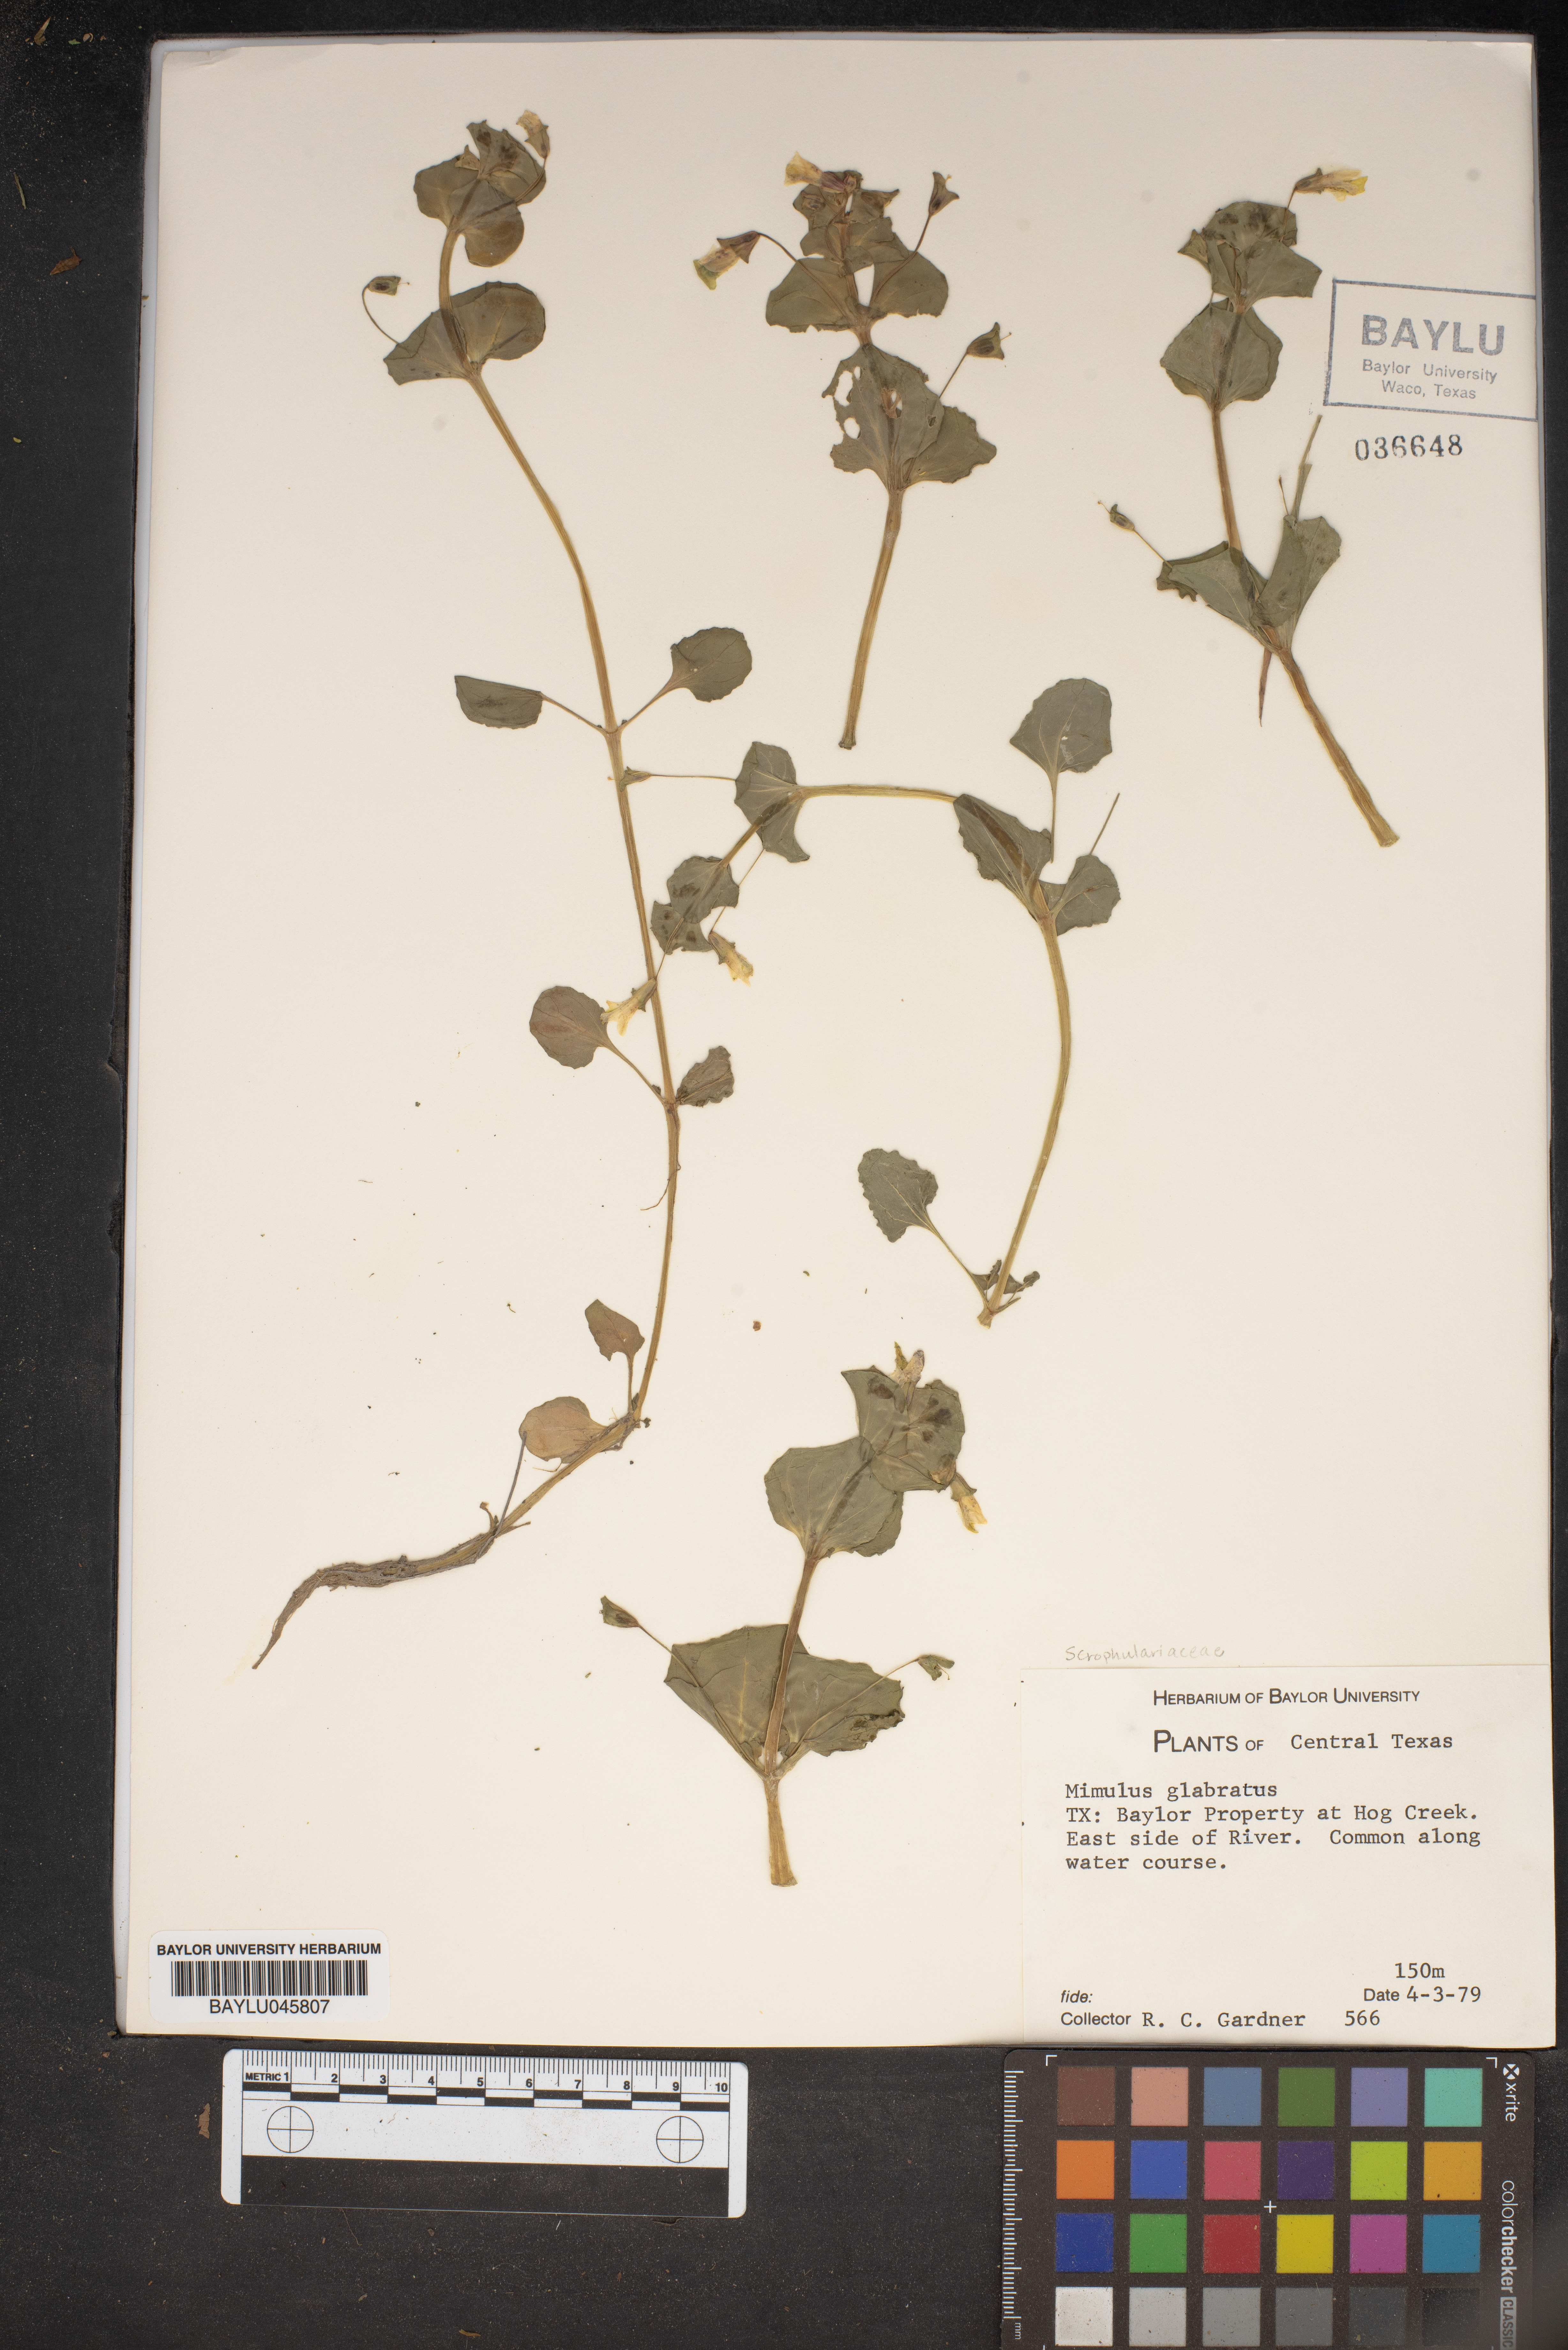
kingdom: Plantae
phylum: Tracheophyta
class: Magnoliopsida
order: Lamiales
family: Phrymaceae
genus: Erythranthe
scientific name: Erythranthe glabrata
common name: Round-leaved monkeyflower
